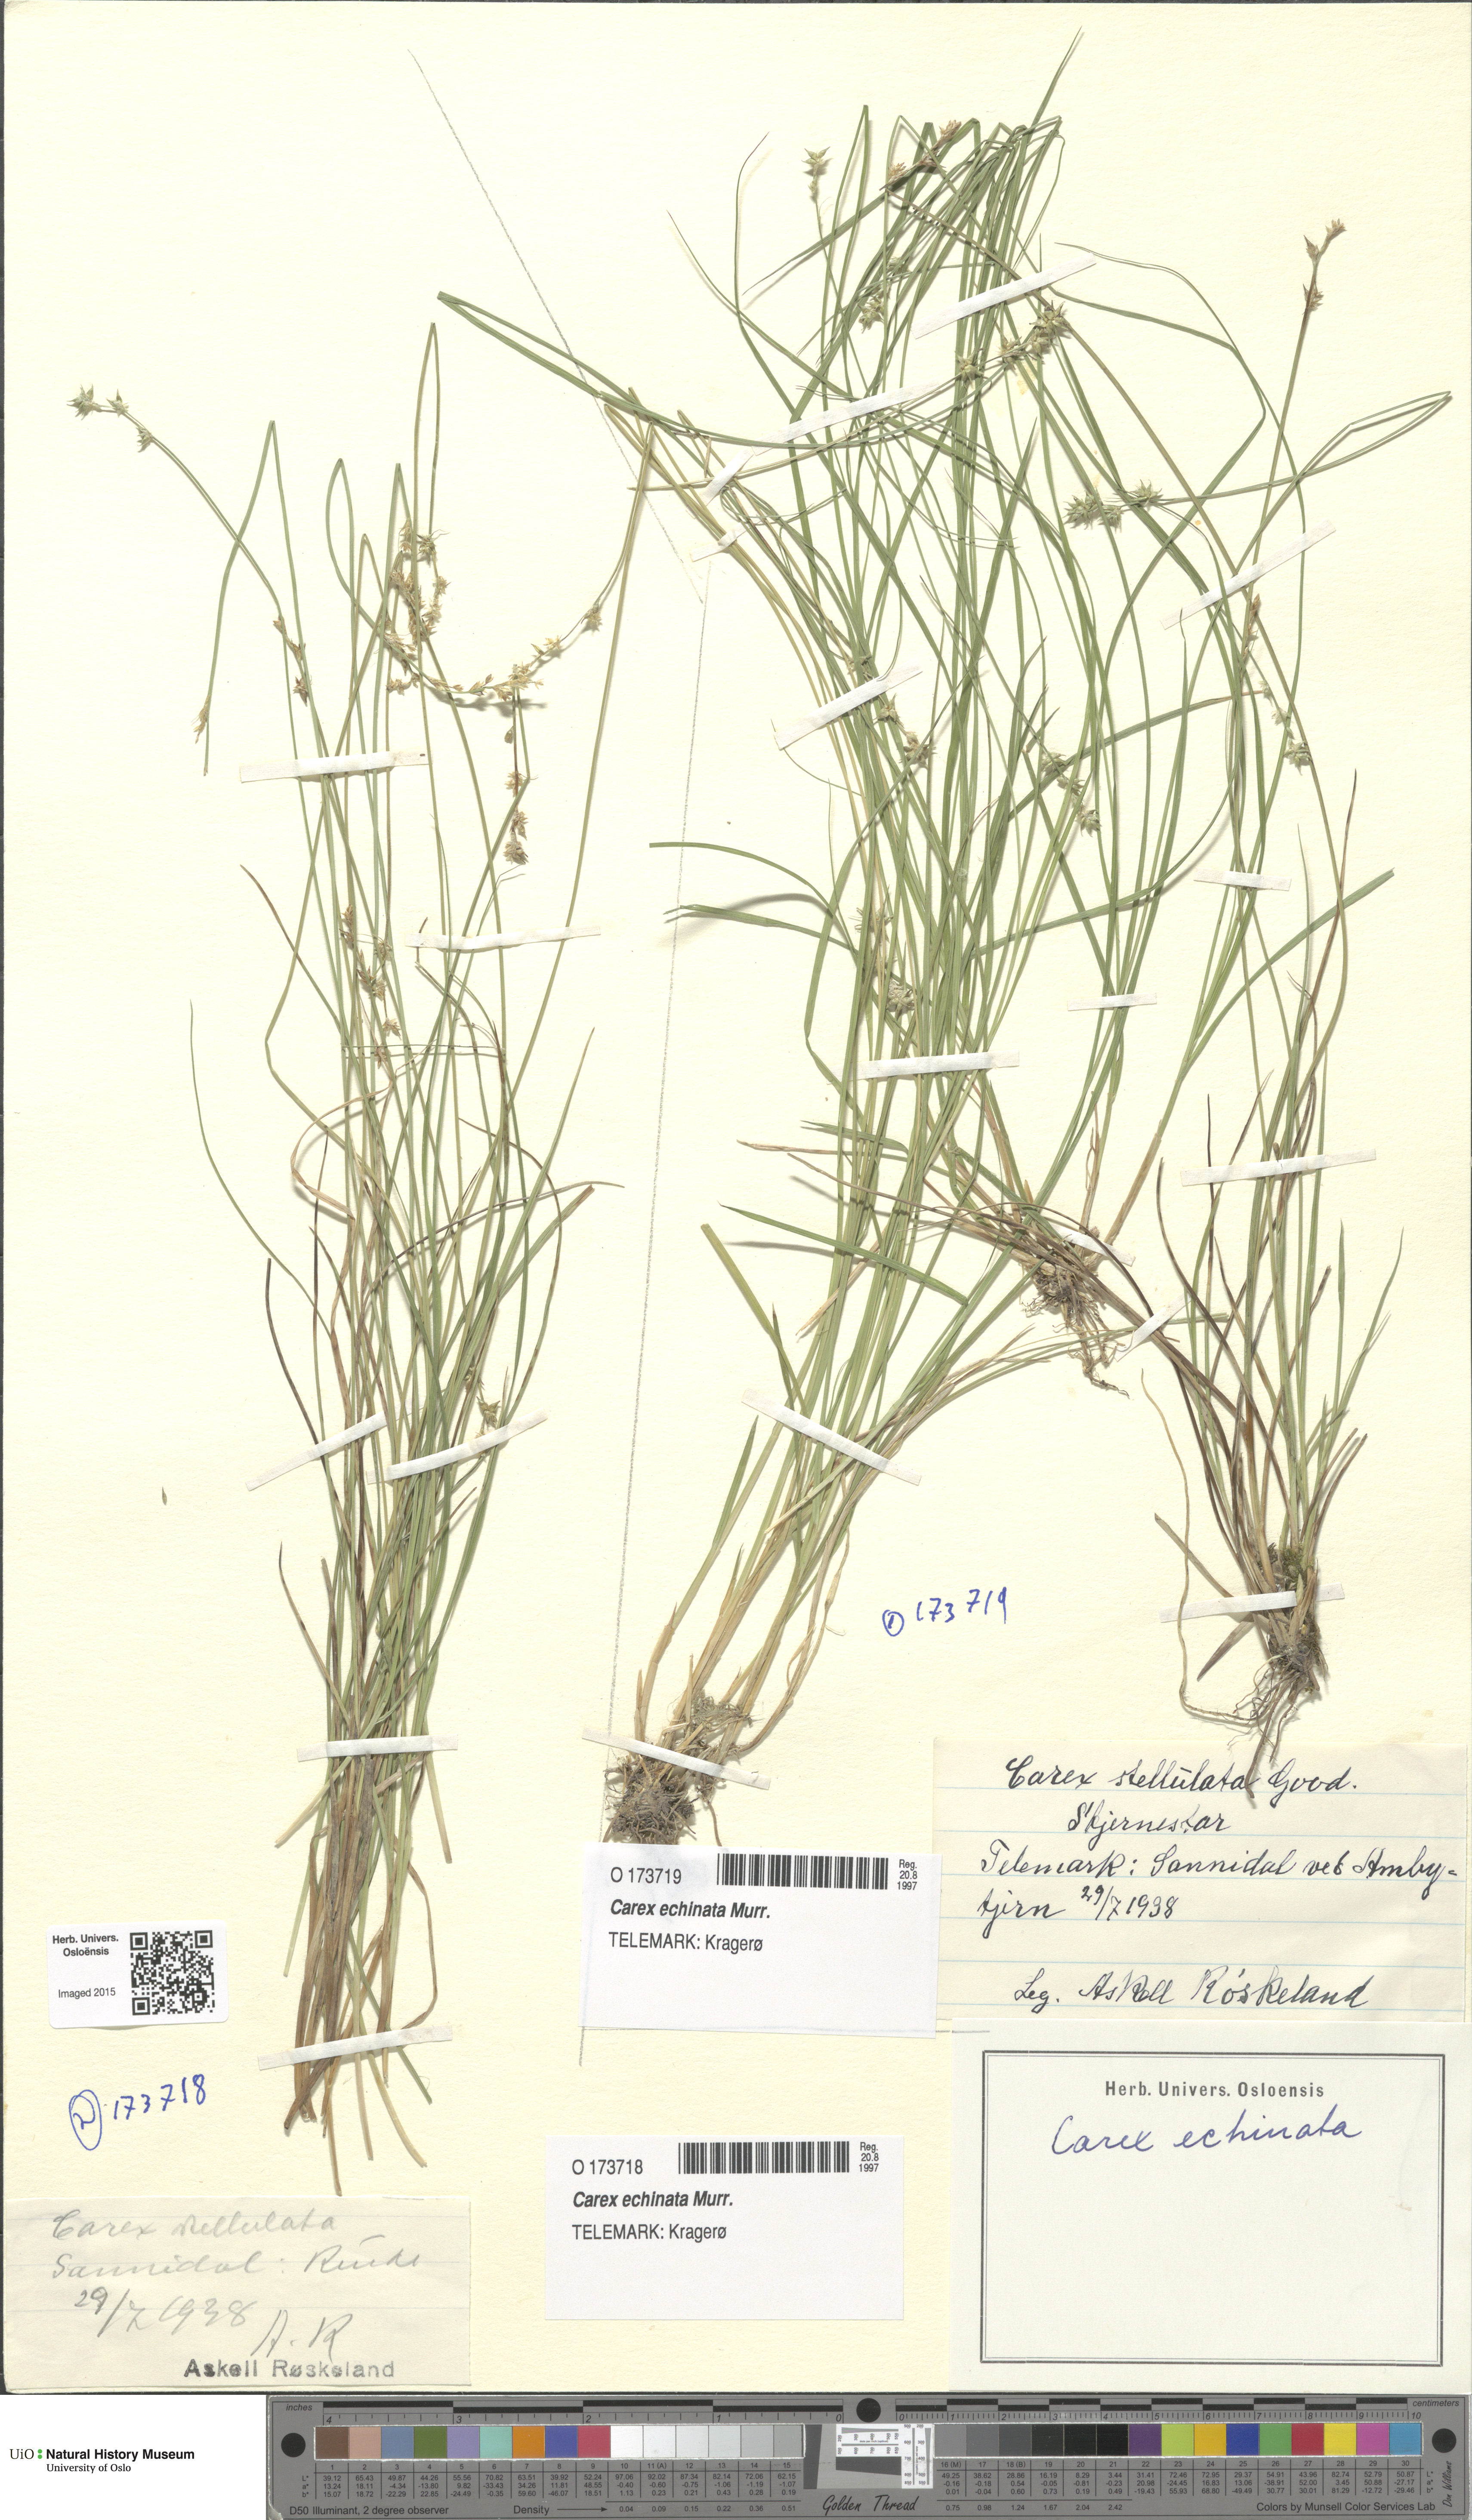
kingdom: Plantae
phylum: Tracheophyta
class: Liliopsida
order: Poales
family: Cyperaceae
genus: Carex
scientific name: Carex echinata
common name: Star sedge
